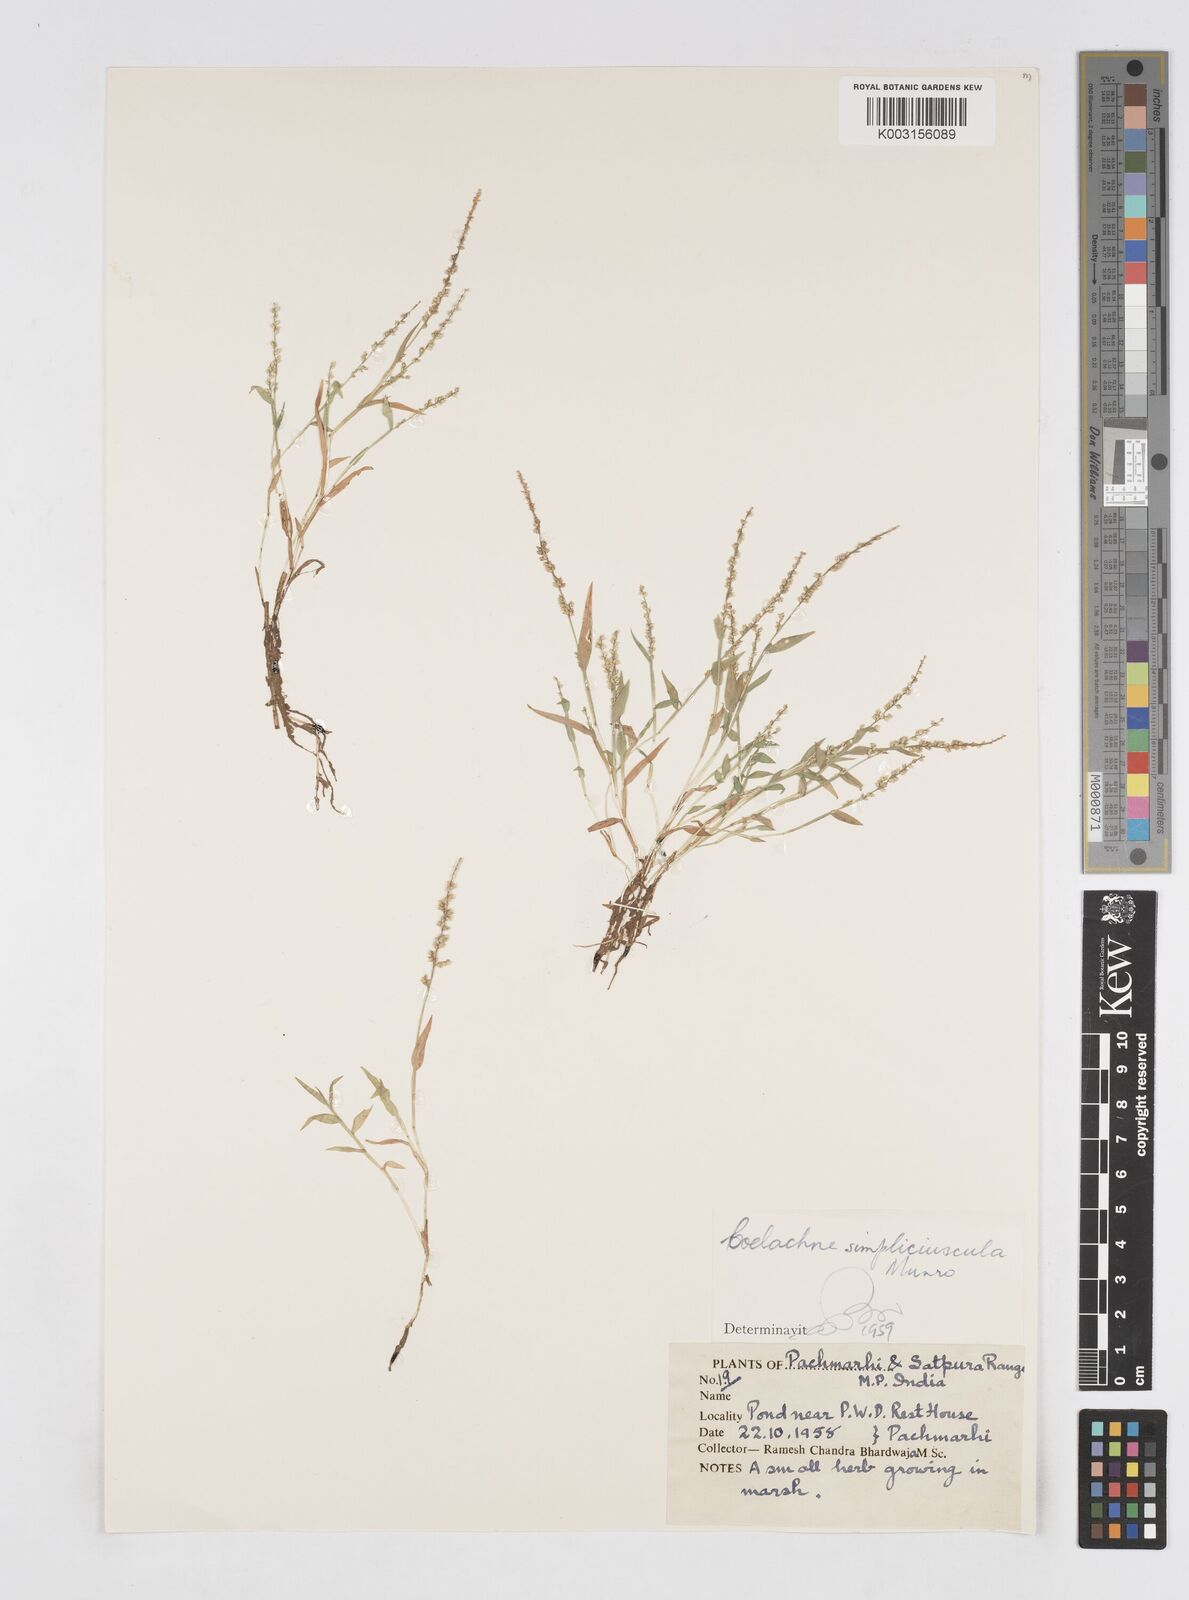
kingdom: Plantae
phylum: Tracheophyta
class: Liliopsida
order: Poales
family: Poaceae
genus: Coelachne
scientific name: Coelachne simpliciuscula
